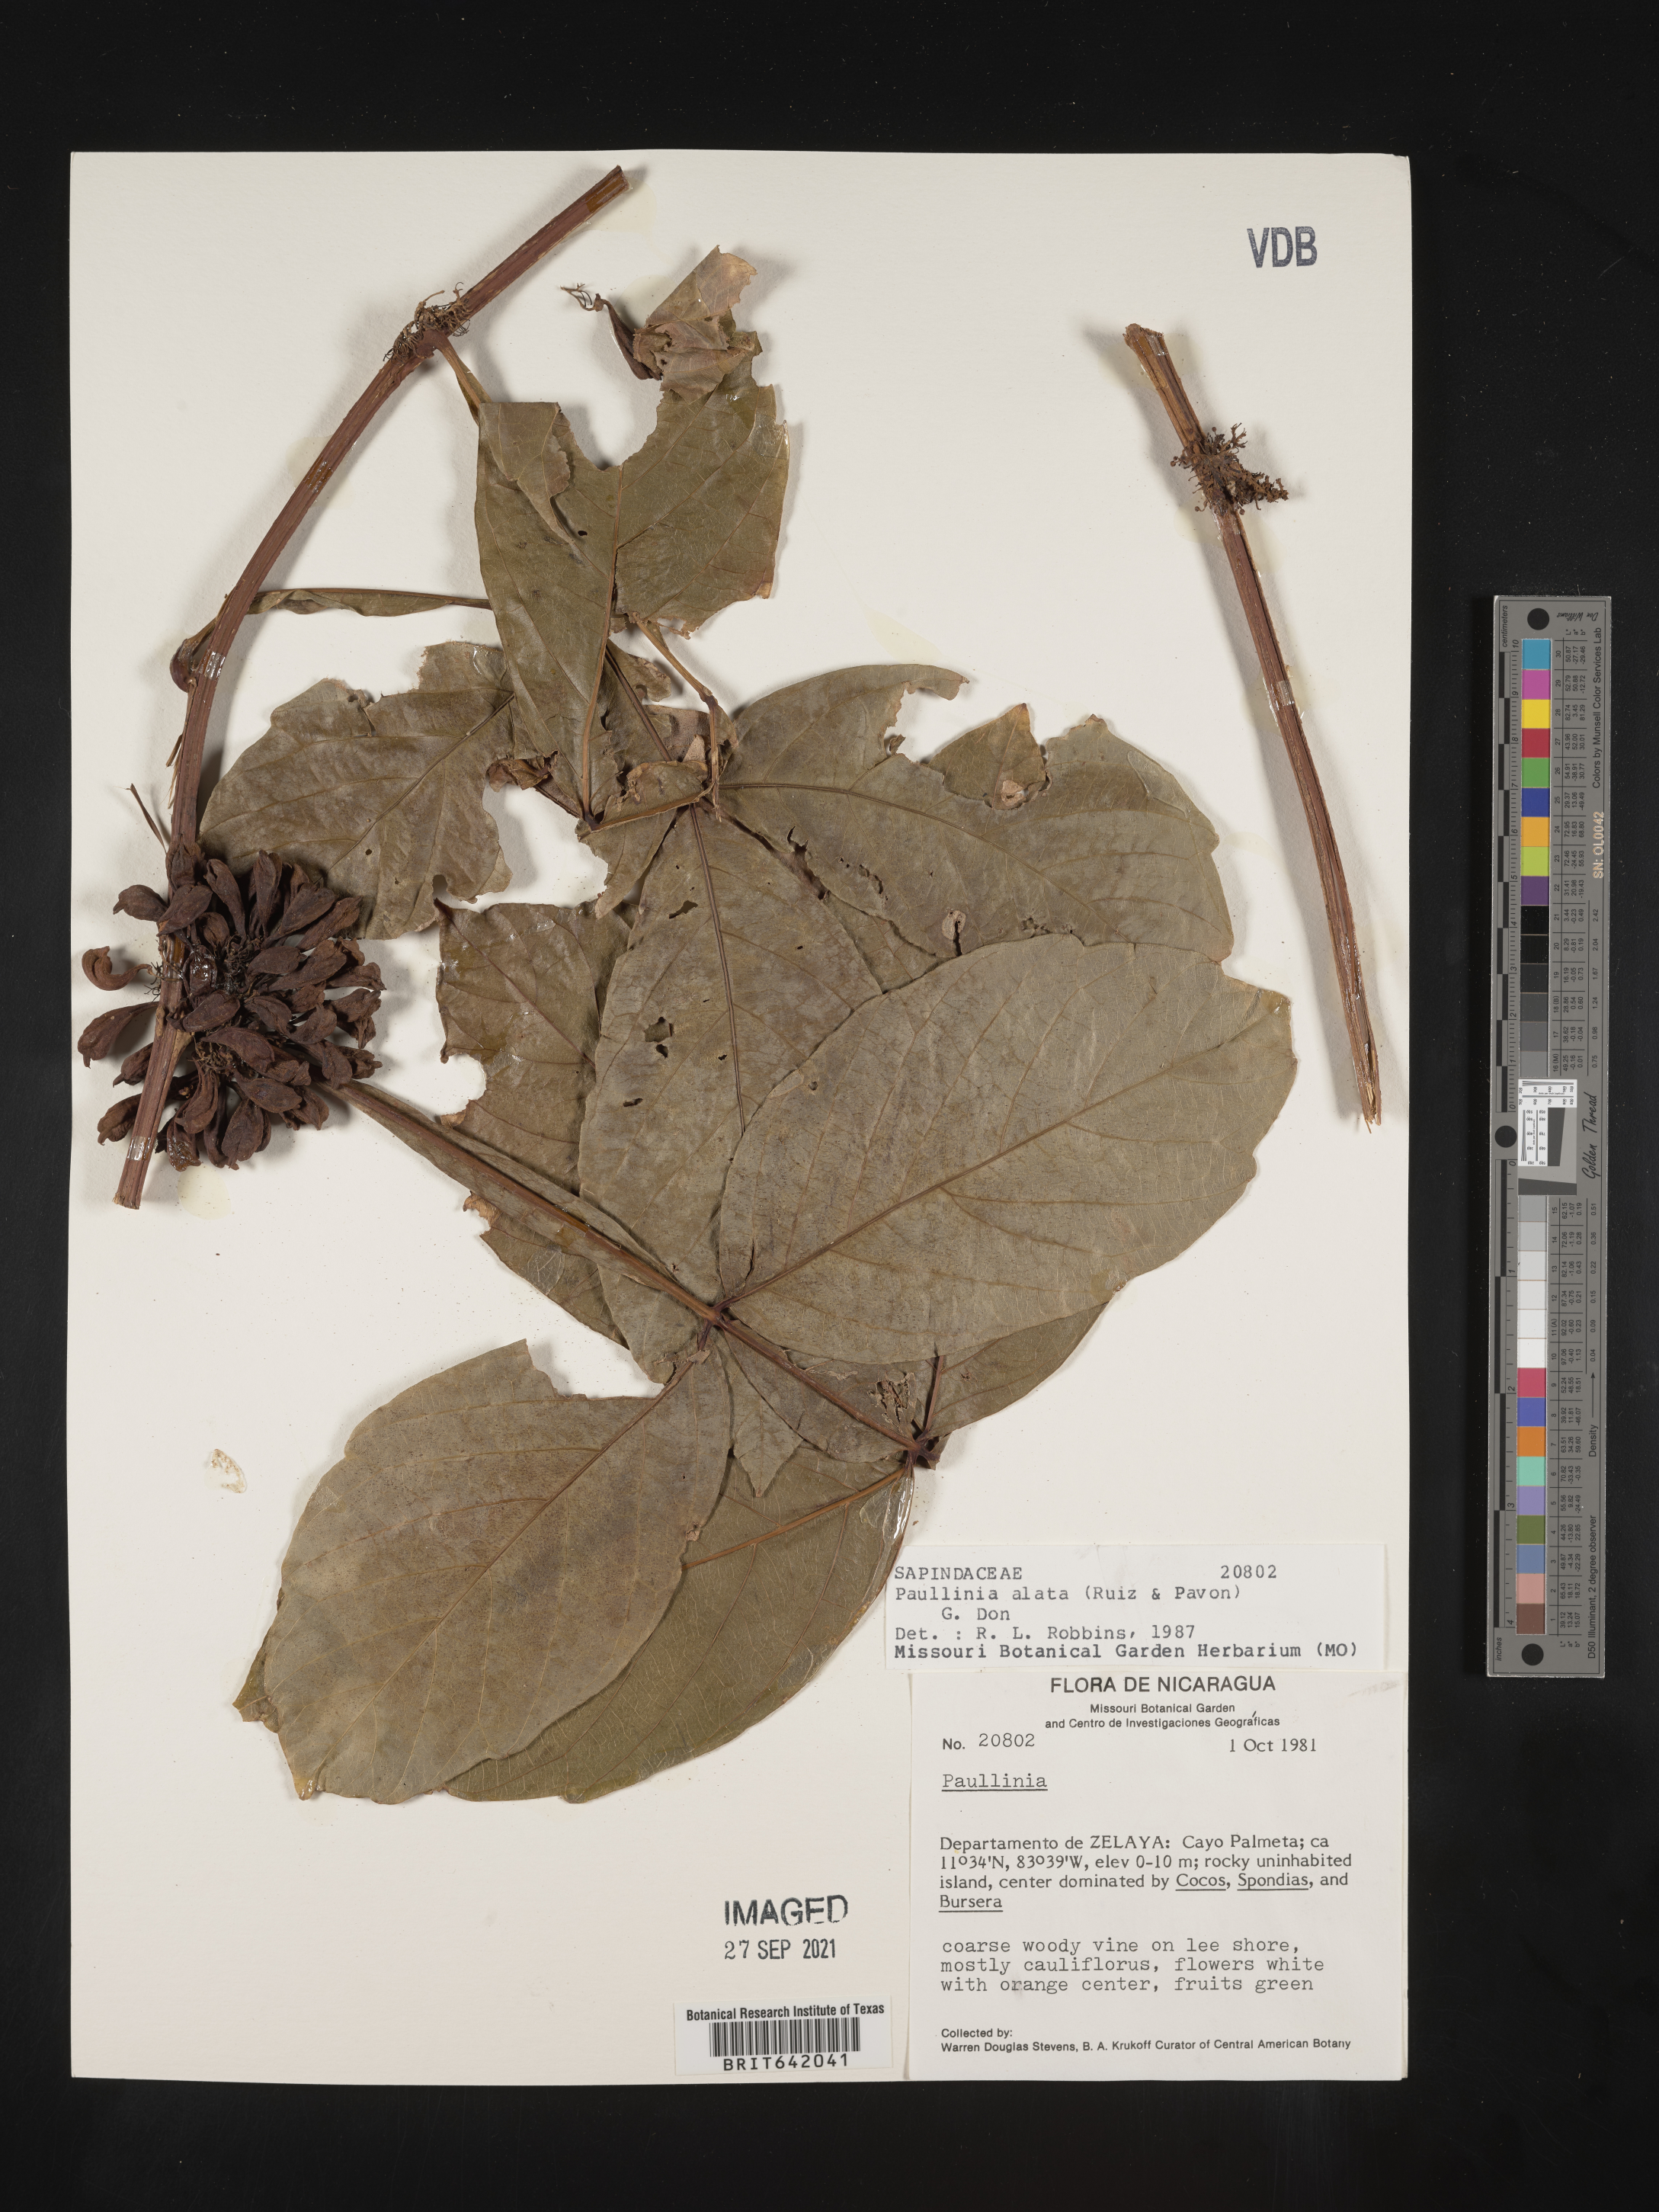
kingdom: Plantae
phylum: Tracheophyta
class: Magnoliopsida
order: Sapindales
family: Sapindaceae
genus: Paullinia
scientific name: Paullinia
